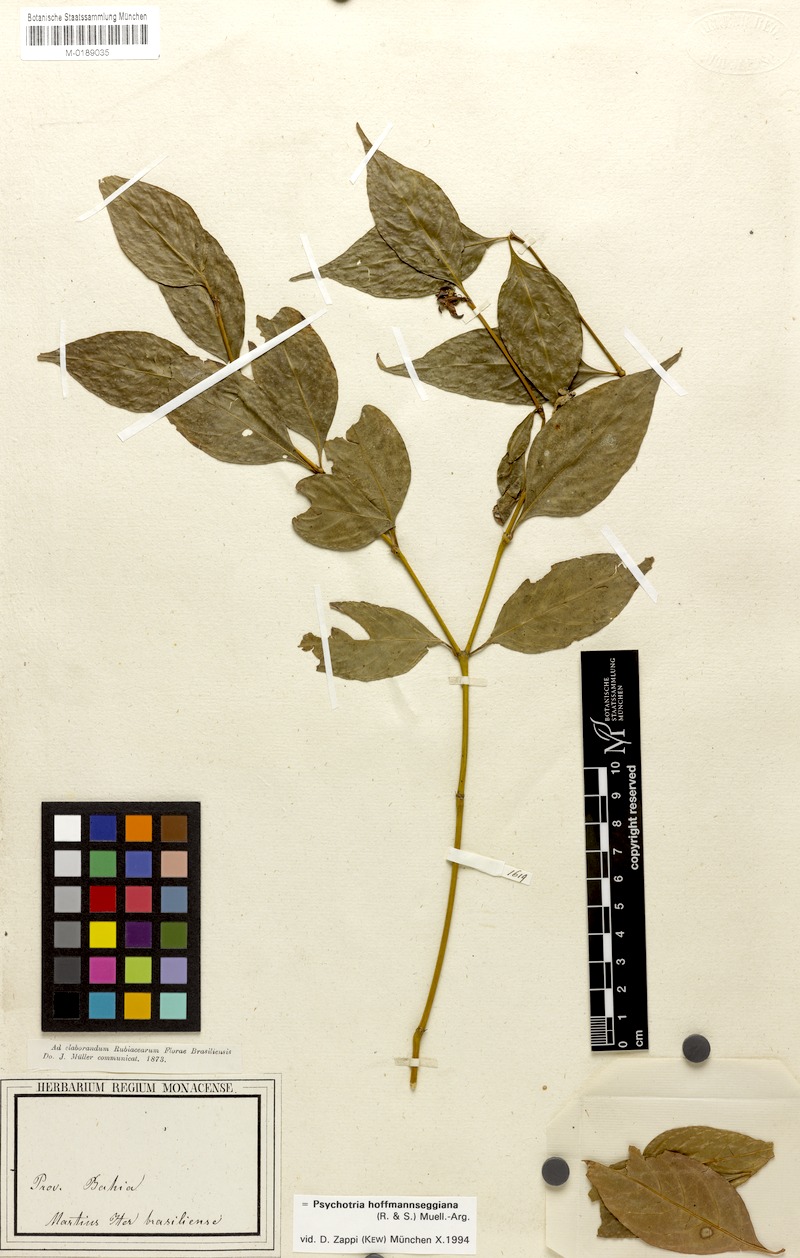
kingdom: Plantae
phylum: Tracheophyta
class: Magnoliopsida
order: Gentianales
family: Rubiaceae
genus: Palicourea
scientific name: Palicourea hoffmannseggiana
